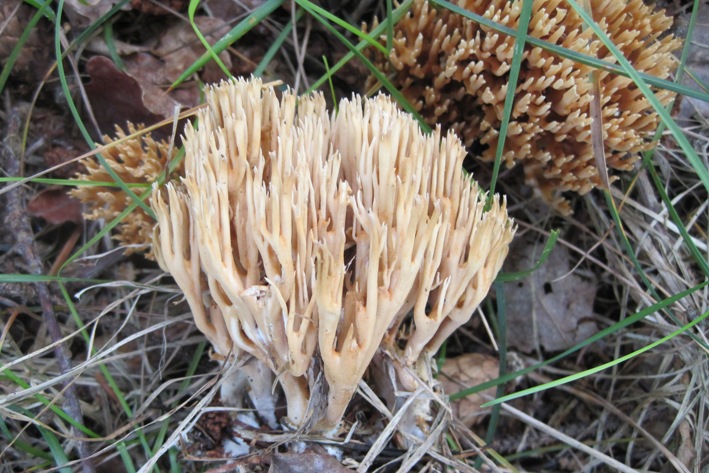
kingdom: Fungi
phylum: Basidiomycota
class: Agaricomycetes
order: Gomphales
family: Gomphaceae
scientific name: Gomphaceae
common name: køllekantarelfamilien
